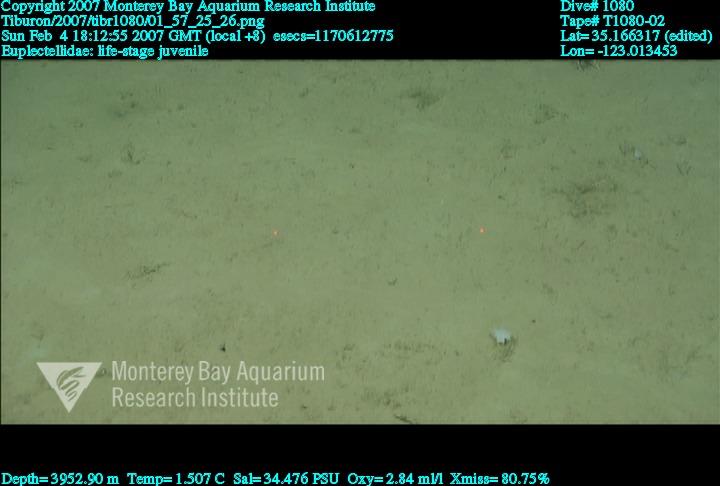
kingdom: Animalia
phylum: Porifera
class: Hexactinellida
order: Lyssacinosida
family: Euplectellidae
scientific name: Euplectellidae
